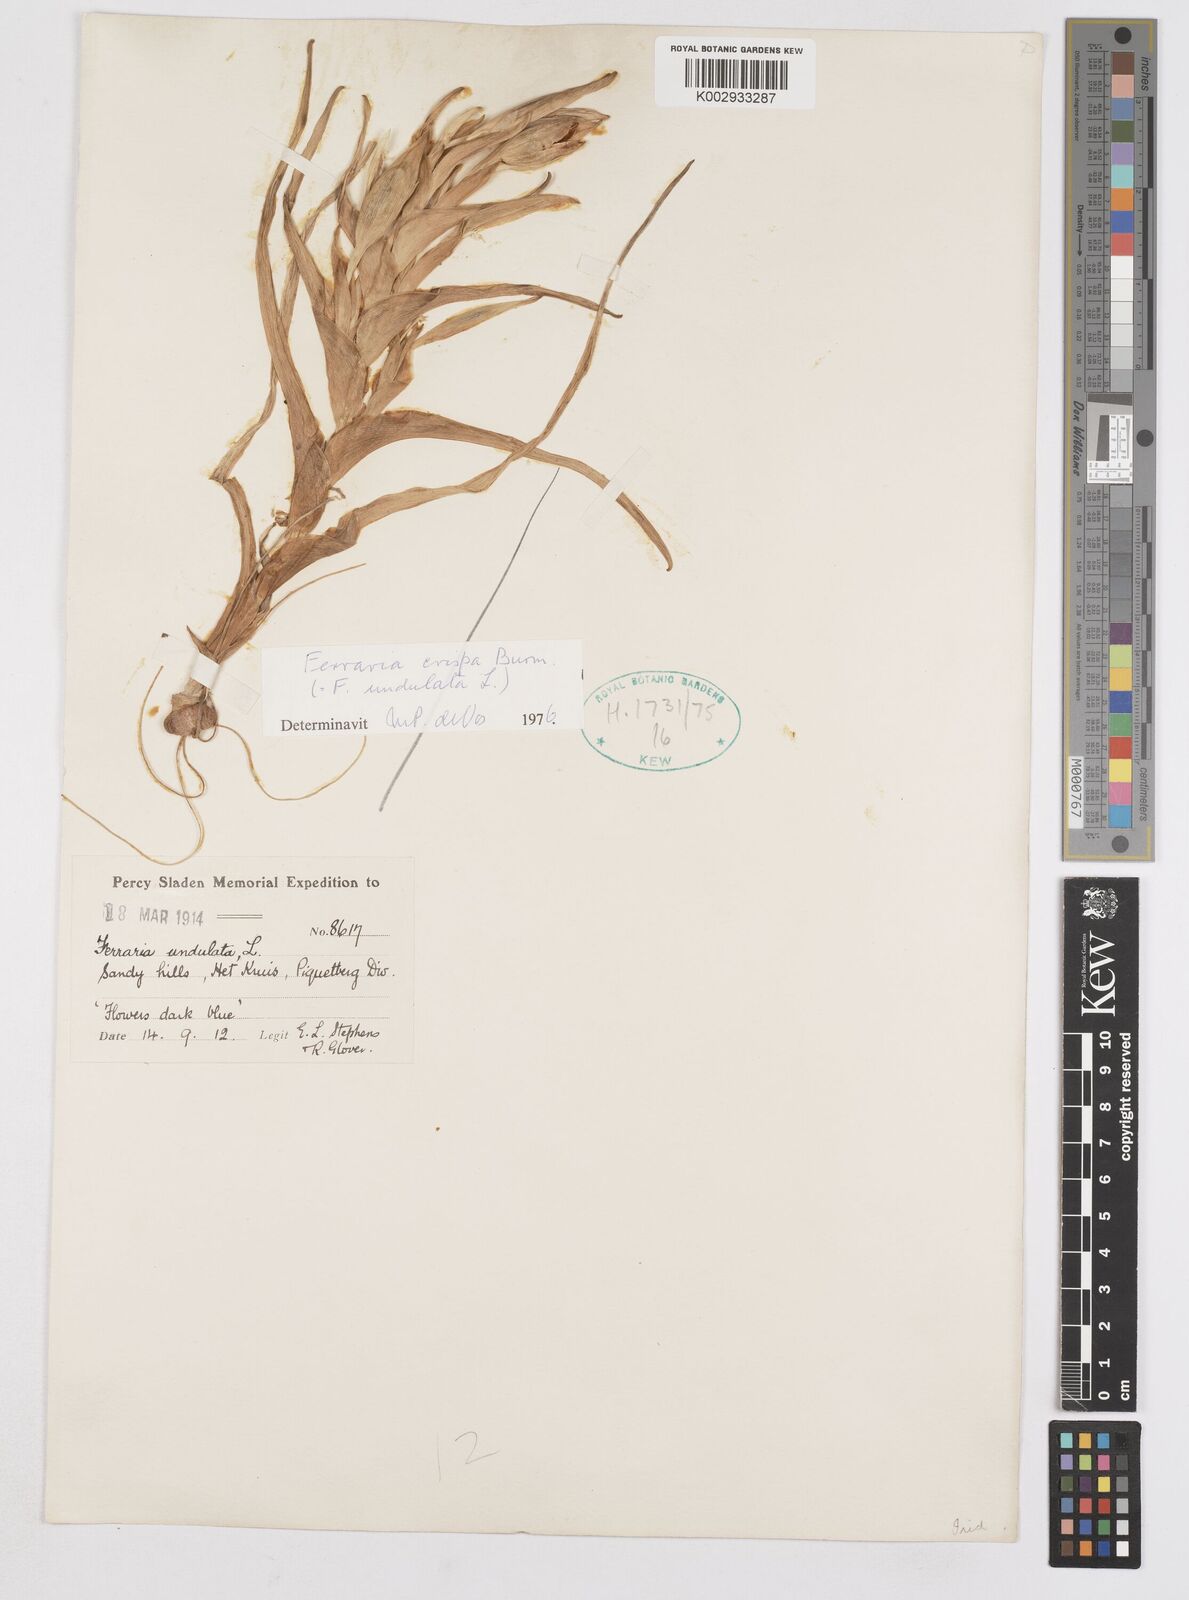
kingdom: Plantae
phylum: Tracheophyta
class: Liliopsida
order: Asparagales
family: Iridaceae
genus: Ferraria
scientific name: Ferraria crispa
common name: Black-flag
